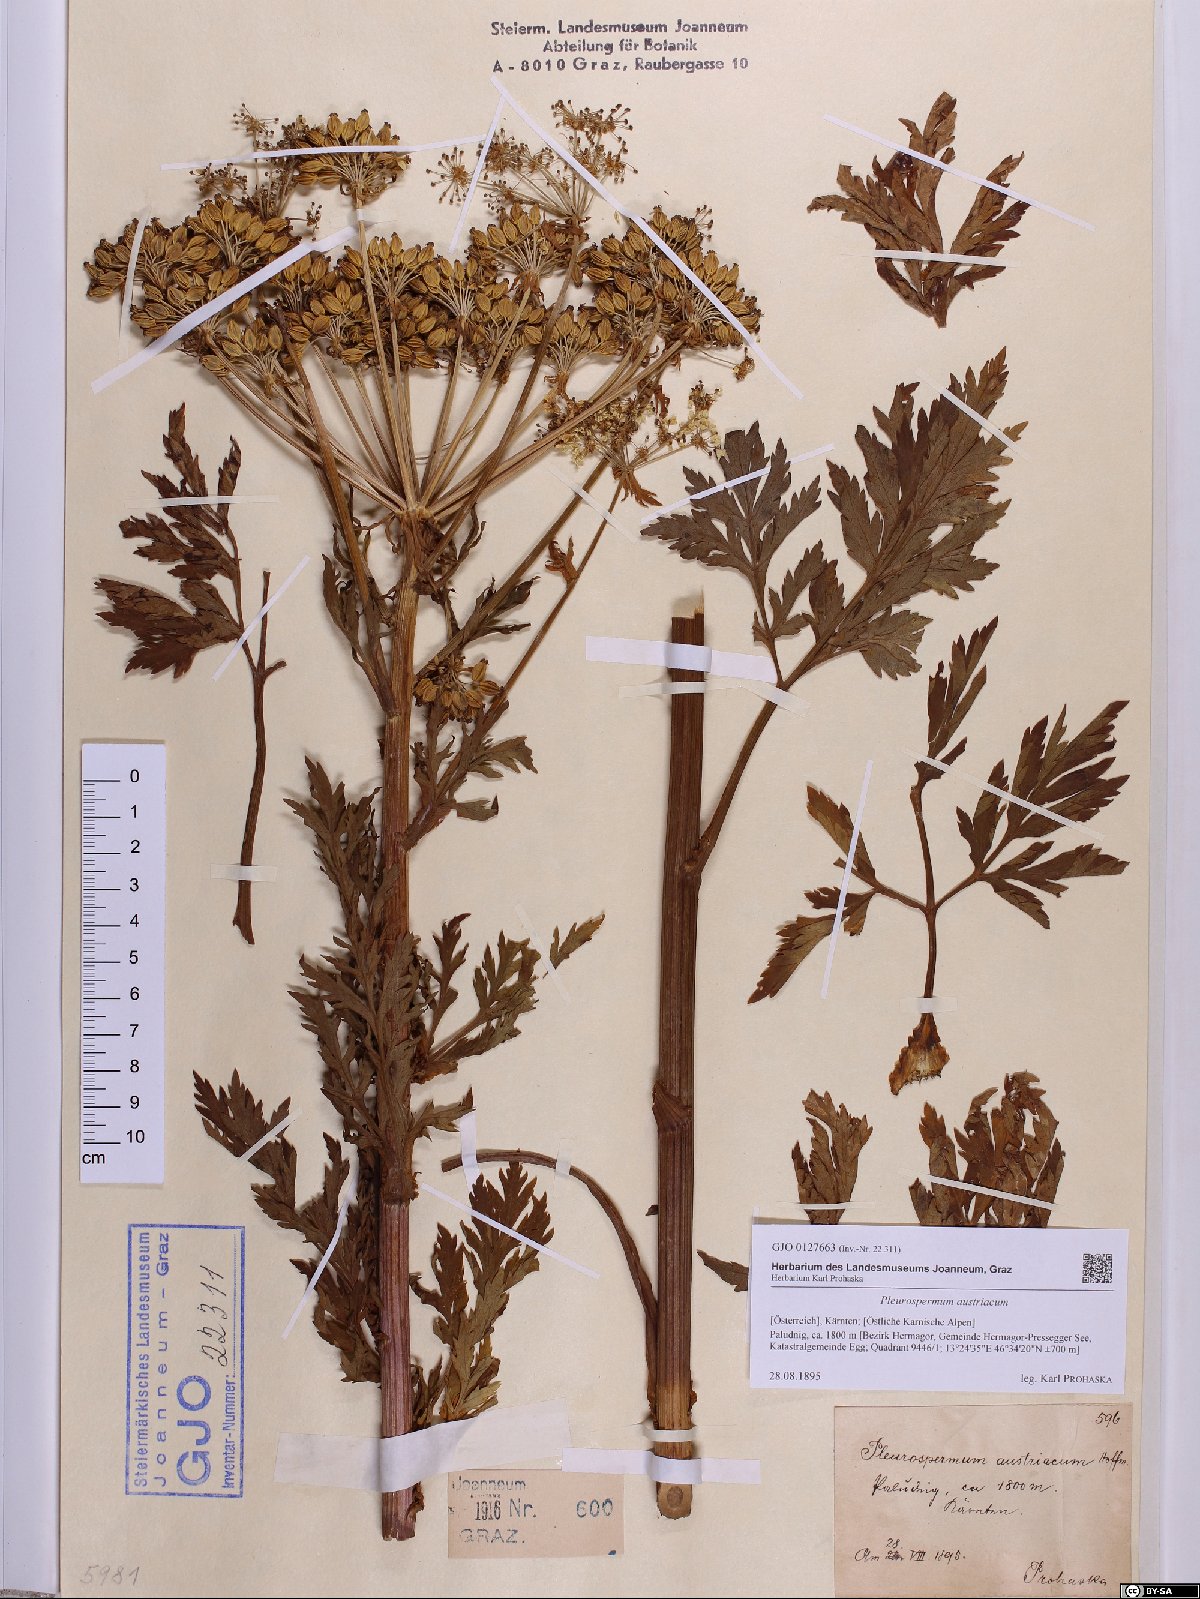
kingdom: Plantae
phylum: Tracheophyta
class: Magnoliopsida
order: Apiales
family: Apiaceae
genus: Pleurospermum
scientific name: Pleurospermum austriacum
